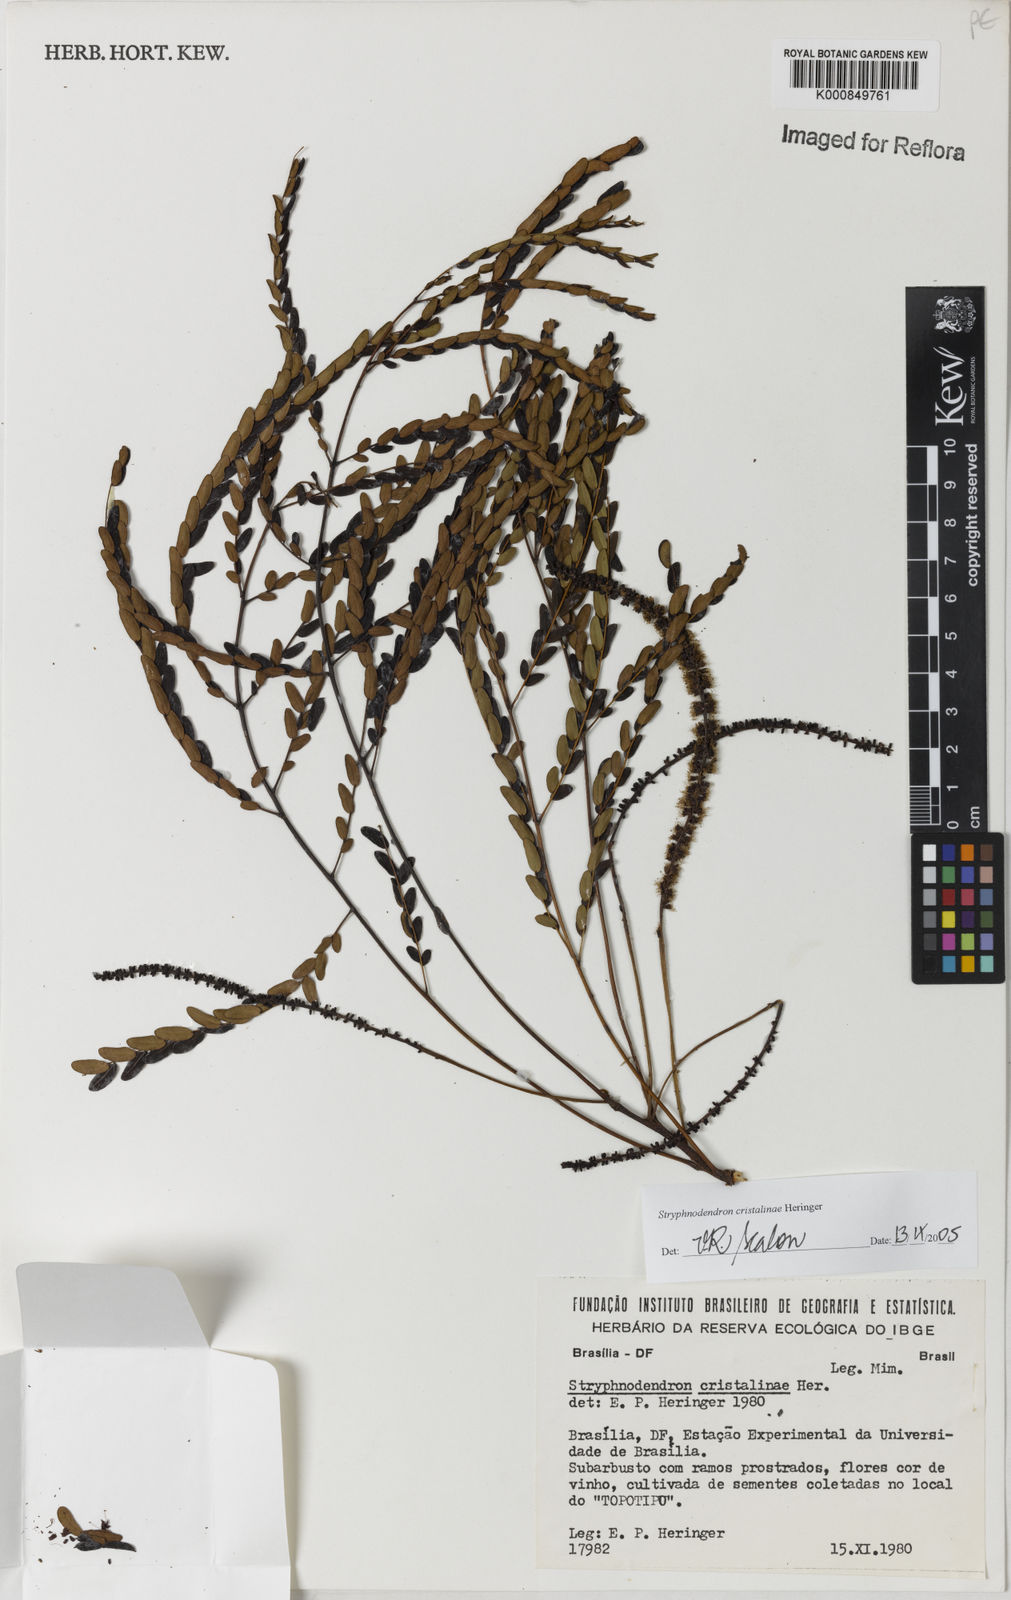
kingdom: Plantae
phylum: Tracheophyta
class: Magnoliopsida
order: Fabales
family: Fabaceae
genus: Stryphnodendron
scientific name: Stryphnodendron
